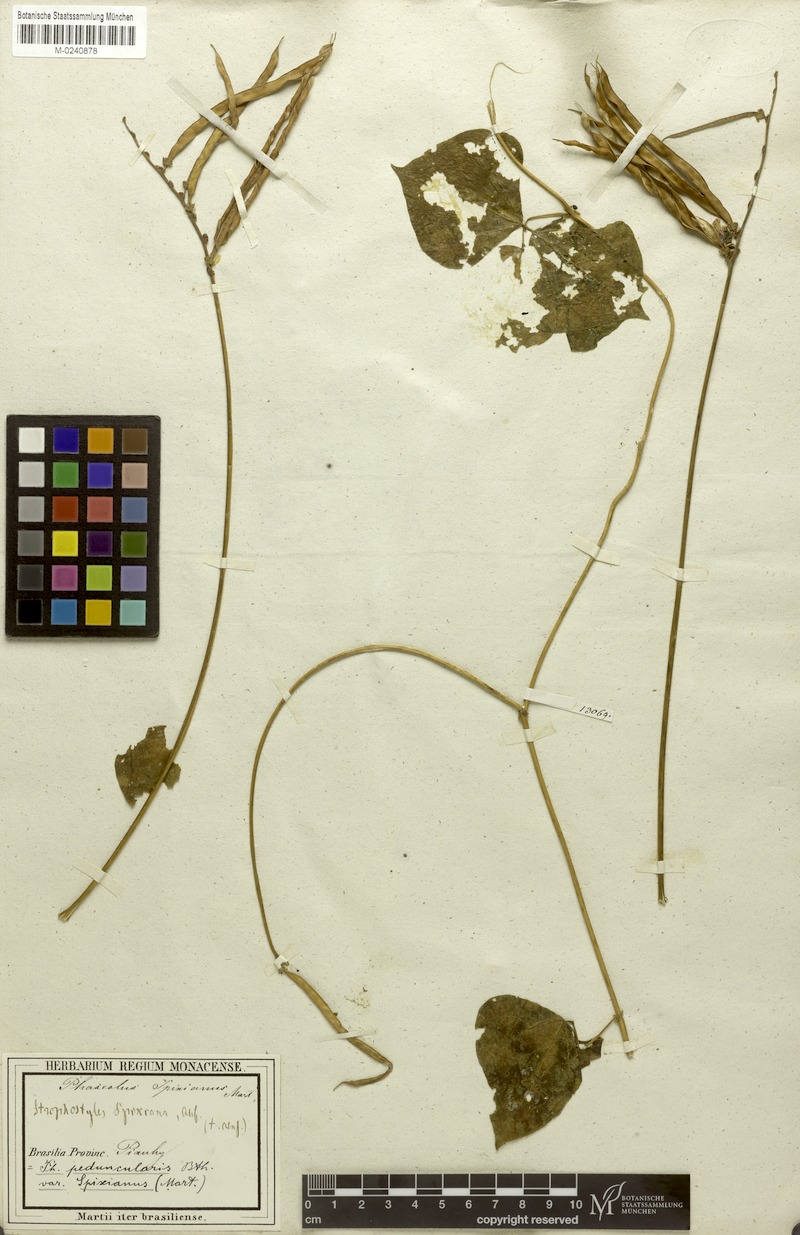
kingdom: Plantae
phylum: Tracheophyta
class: Magnoliopsida
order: Fabales
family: Fabaceae
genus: Ancistrotropis
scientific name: Ancistrotropis peduncularis
